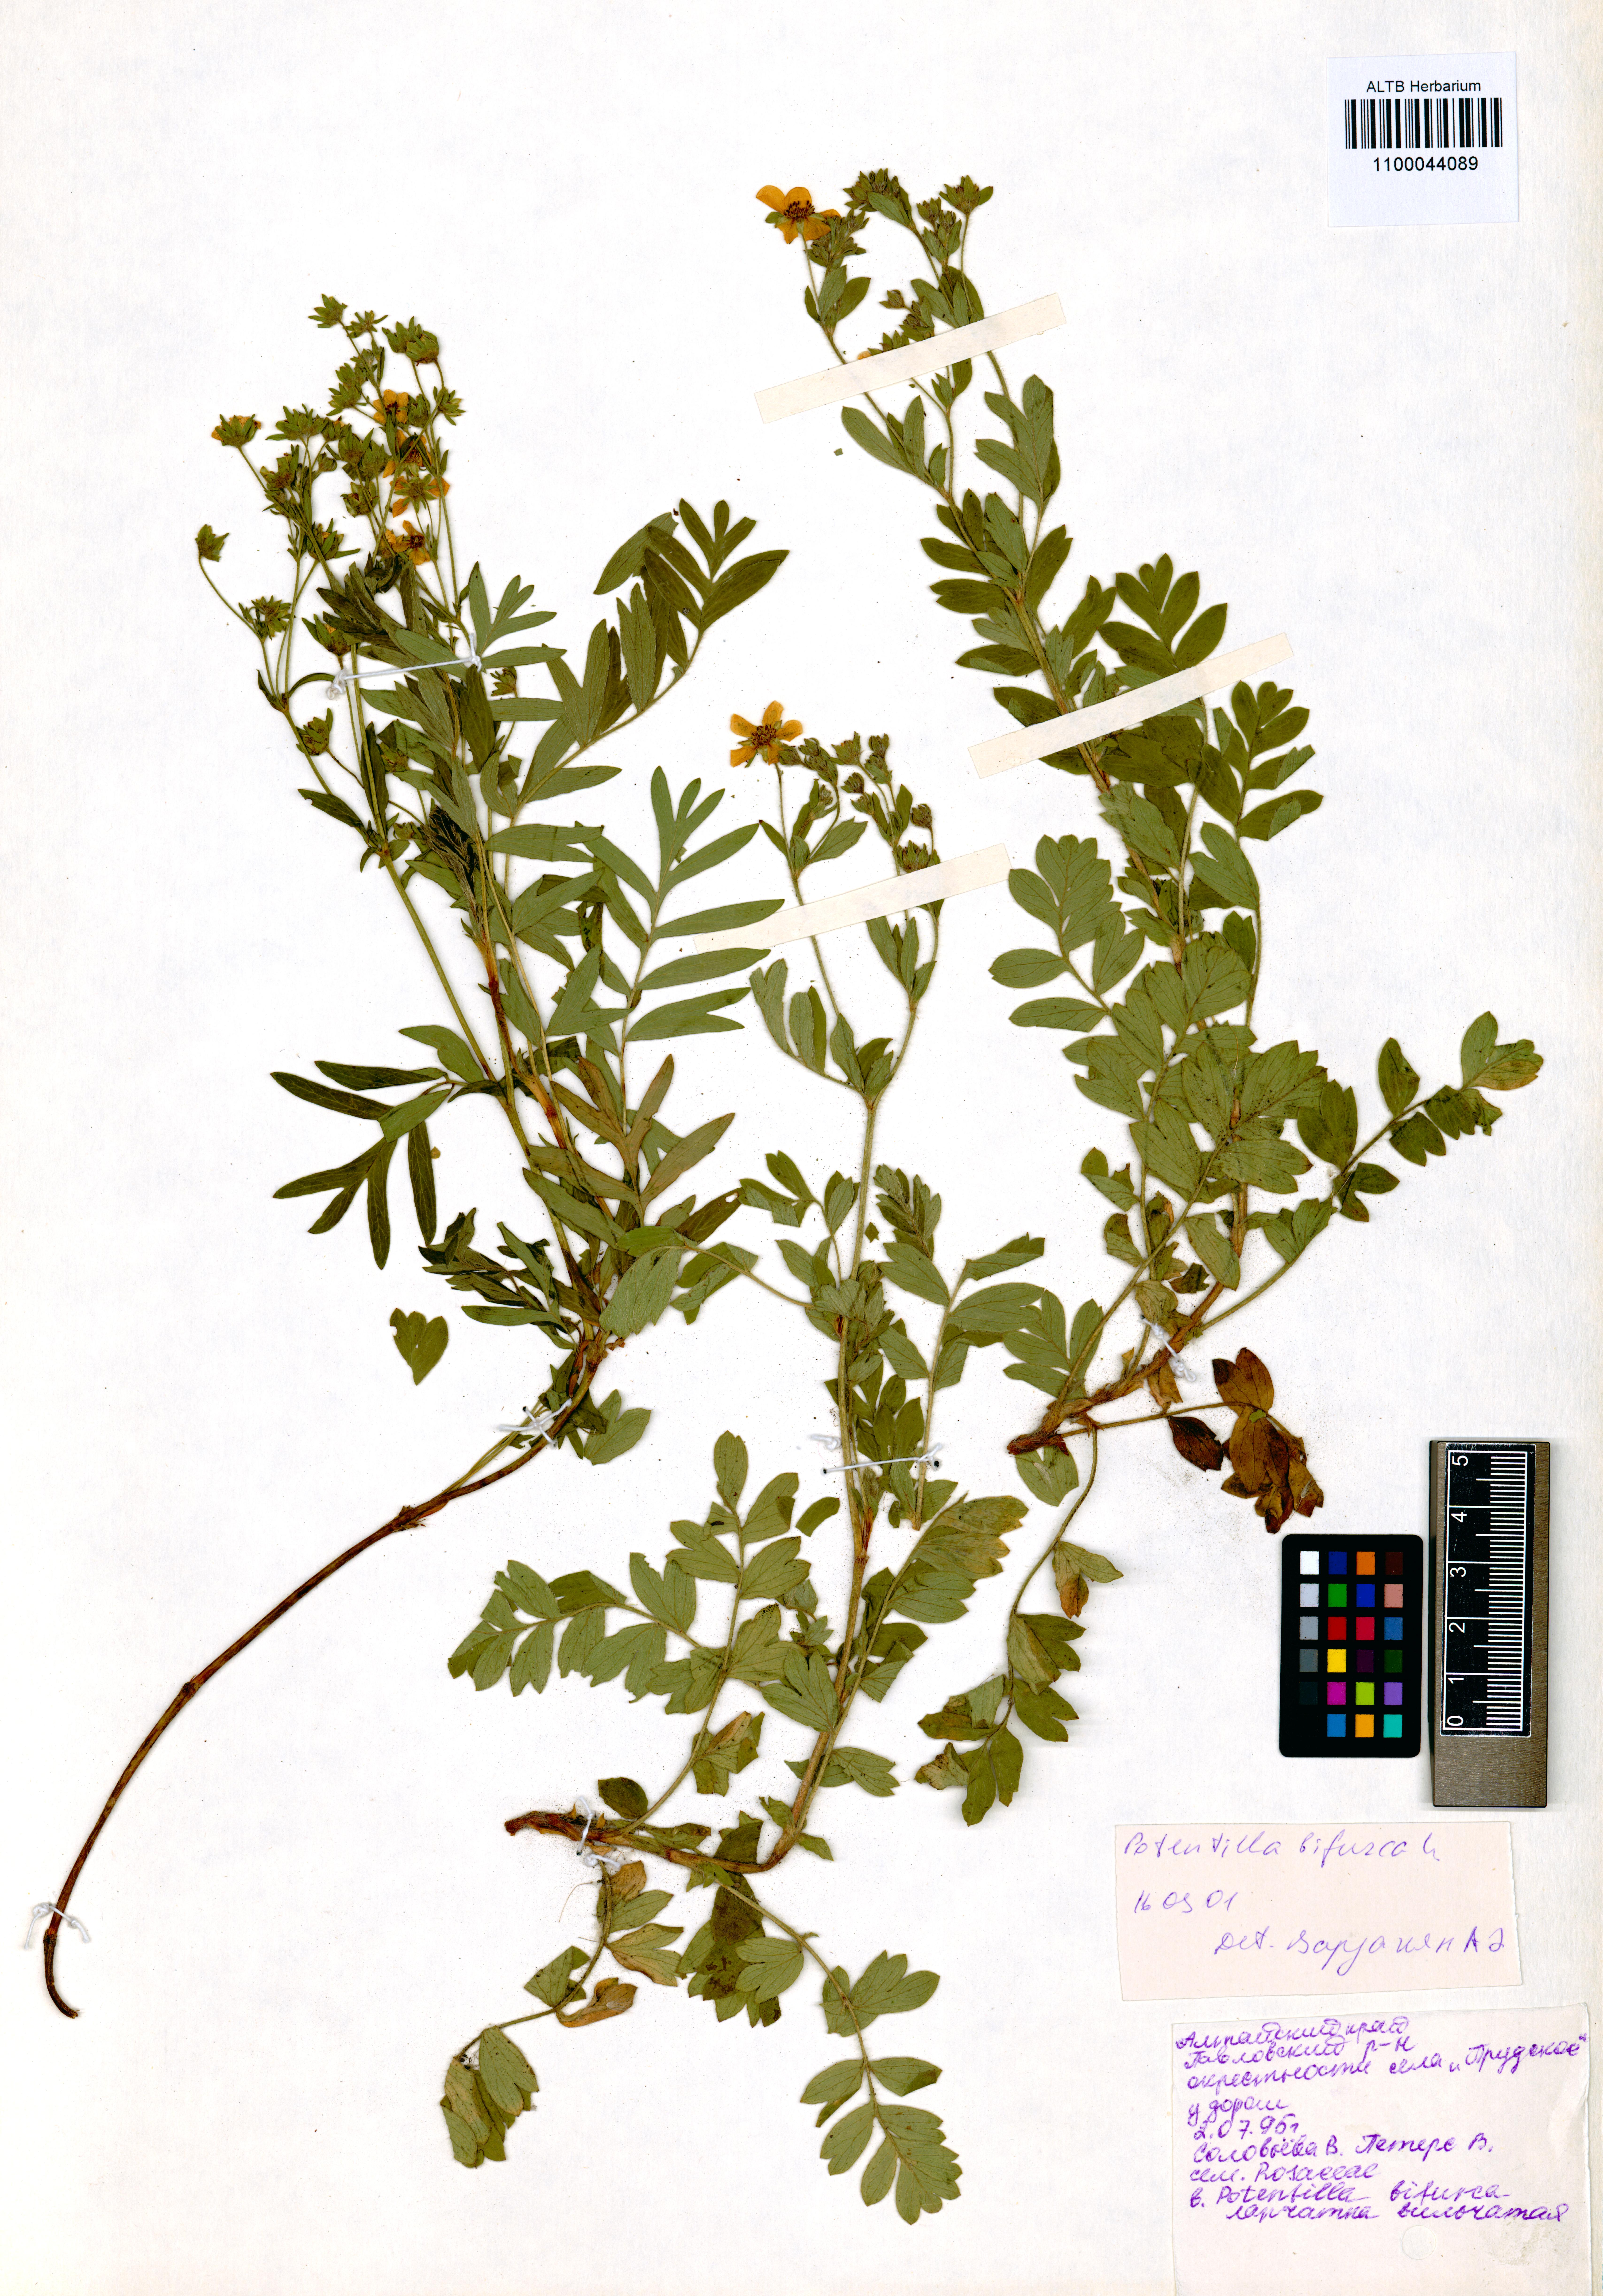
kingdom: Plantae
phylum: Tracheophyta
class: Magnoliopsida
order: Rosales
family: Rosaceae
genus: Sibbaldianthe
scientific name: Sibbaldianthe bifurca
